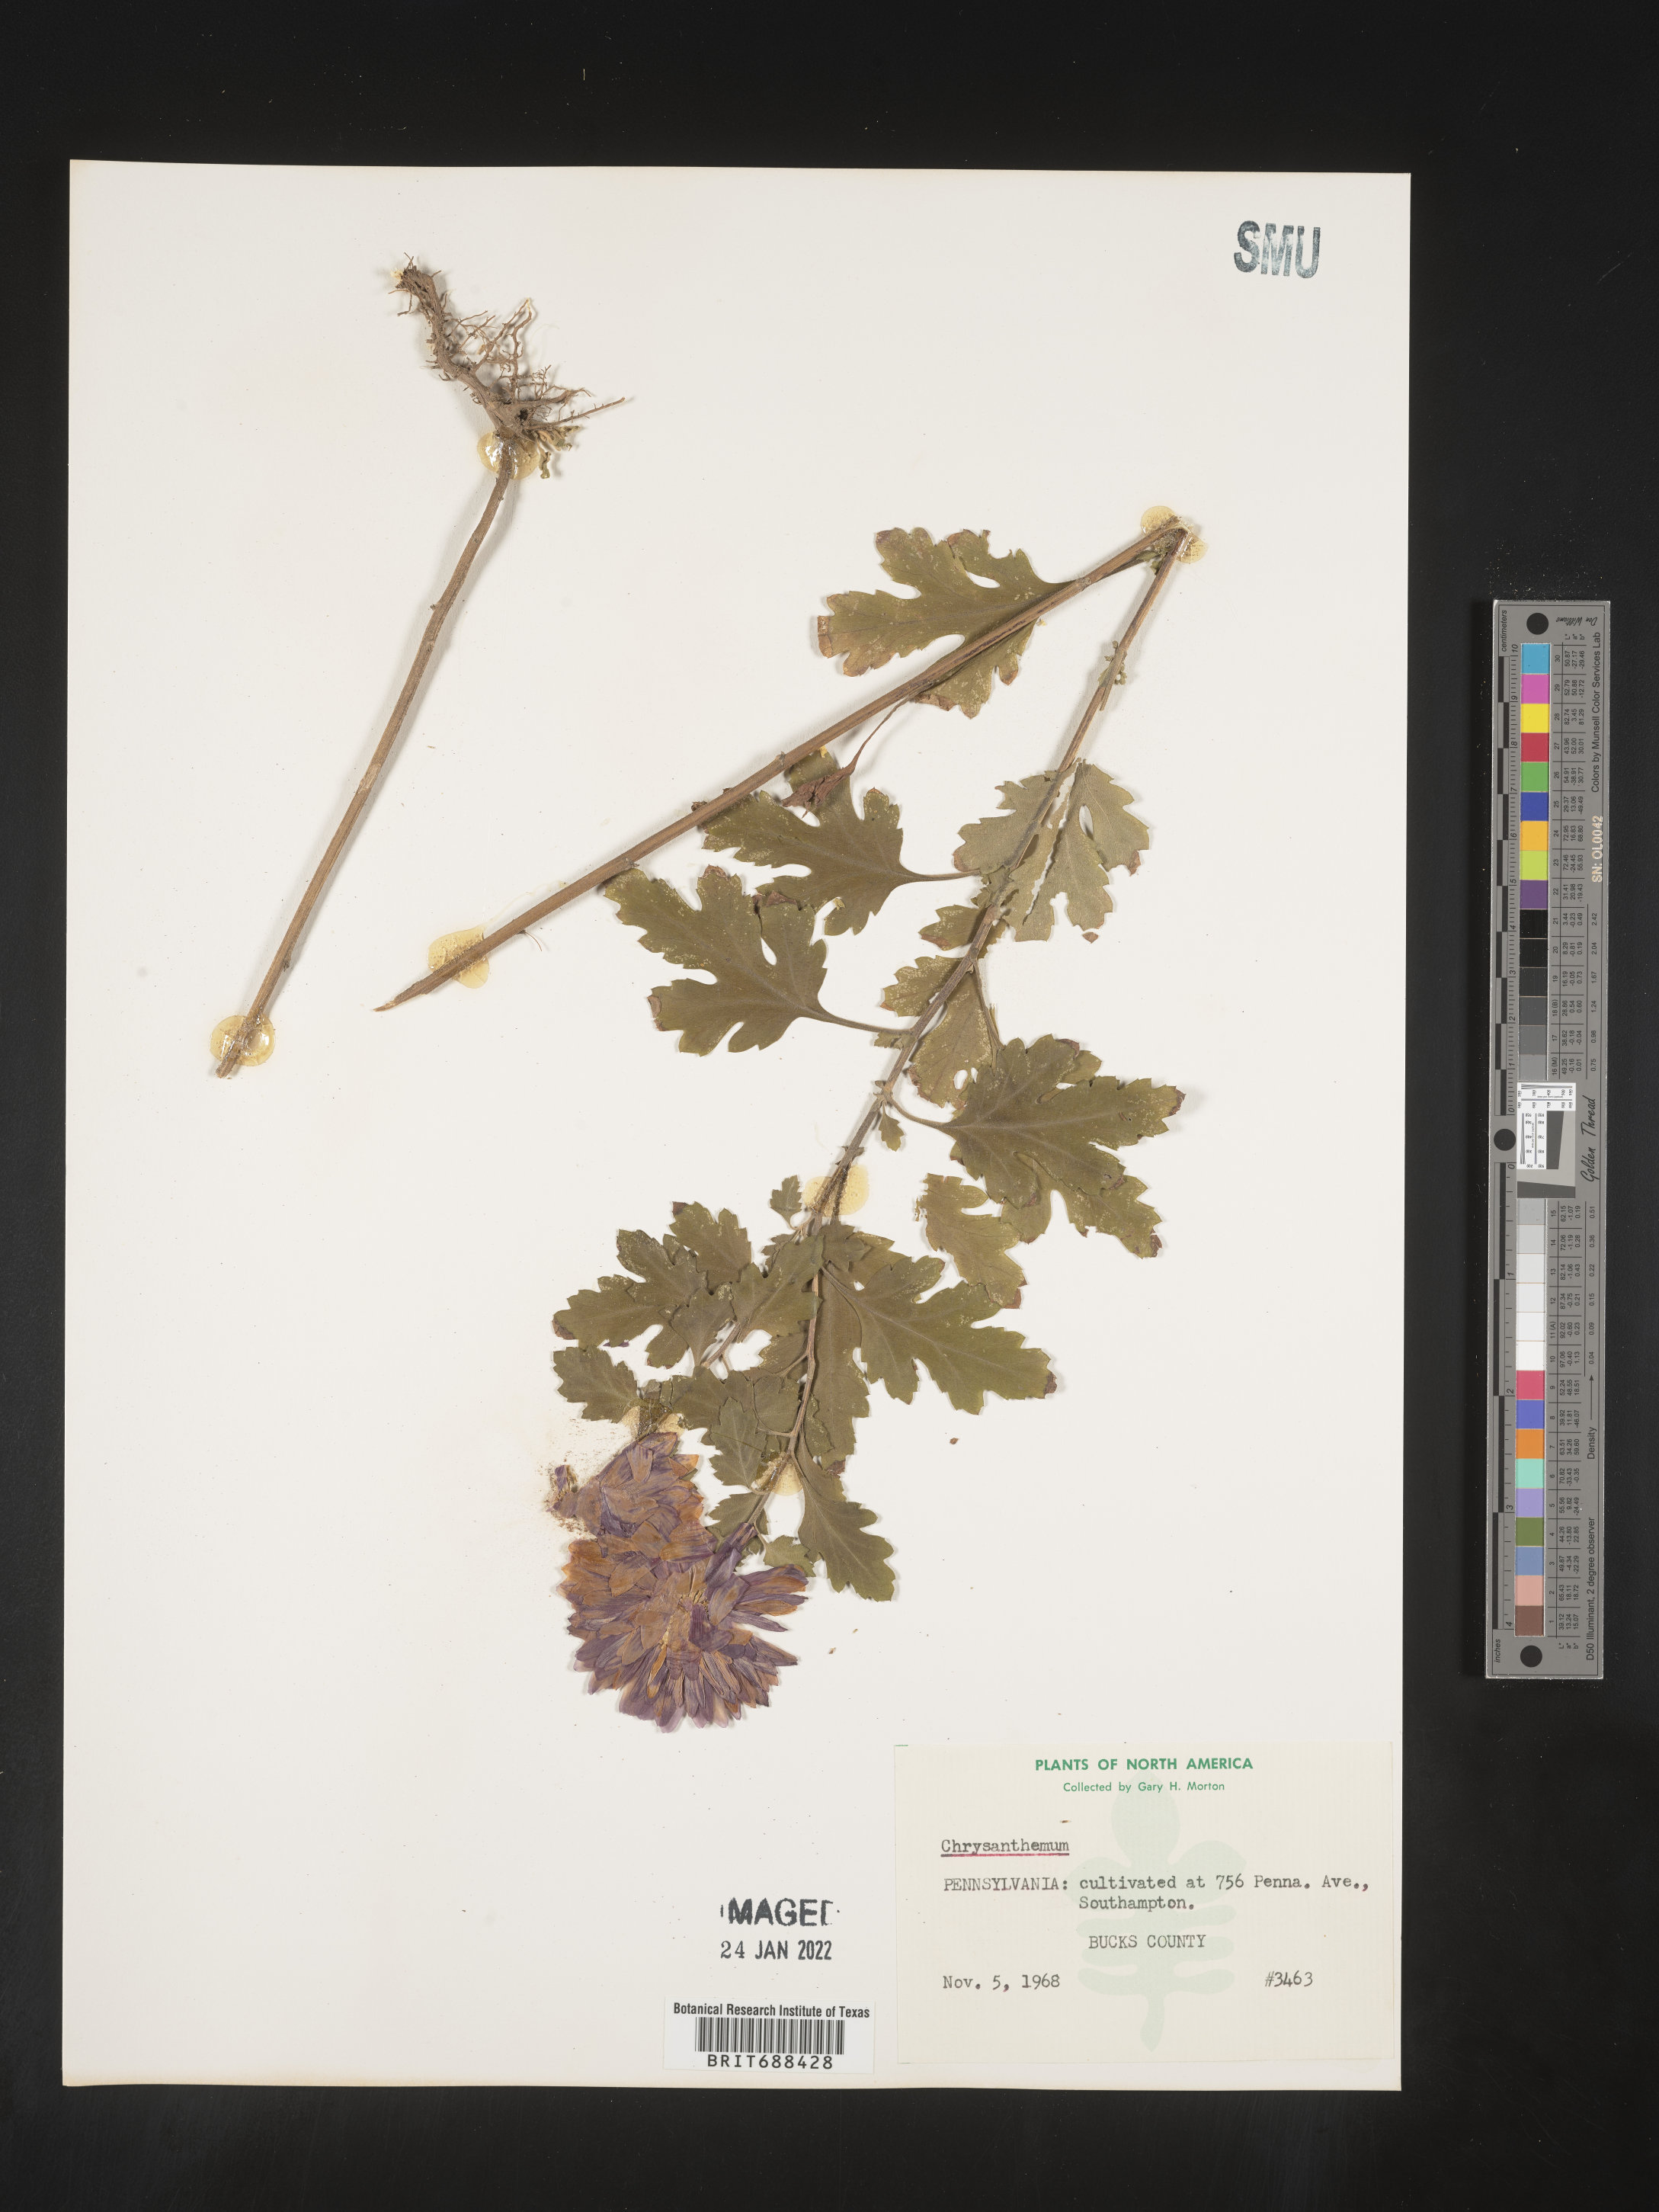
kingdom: Plantae
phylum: Tracheophyta
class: Magnoliopsida
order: Asterales
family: Asteraceae
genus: Chrysanthemum
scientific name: Chrysanthemum
